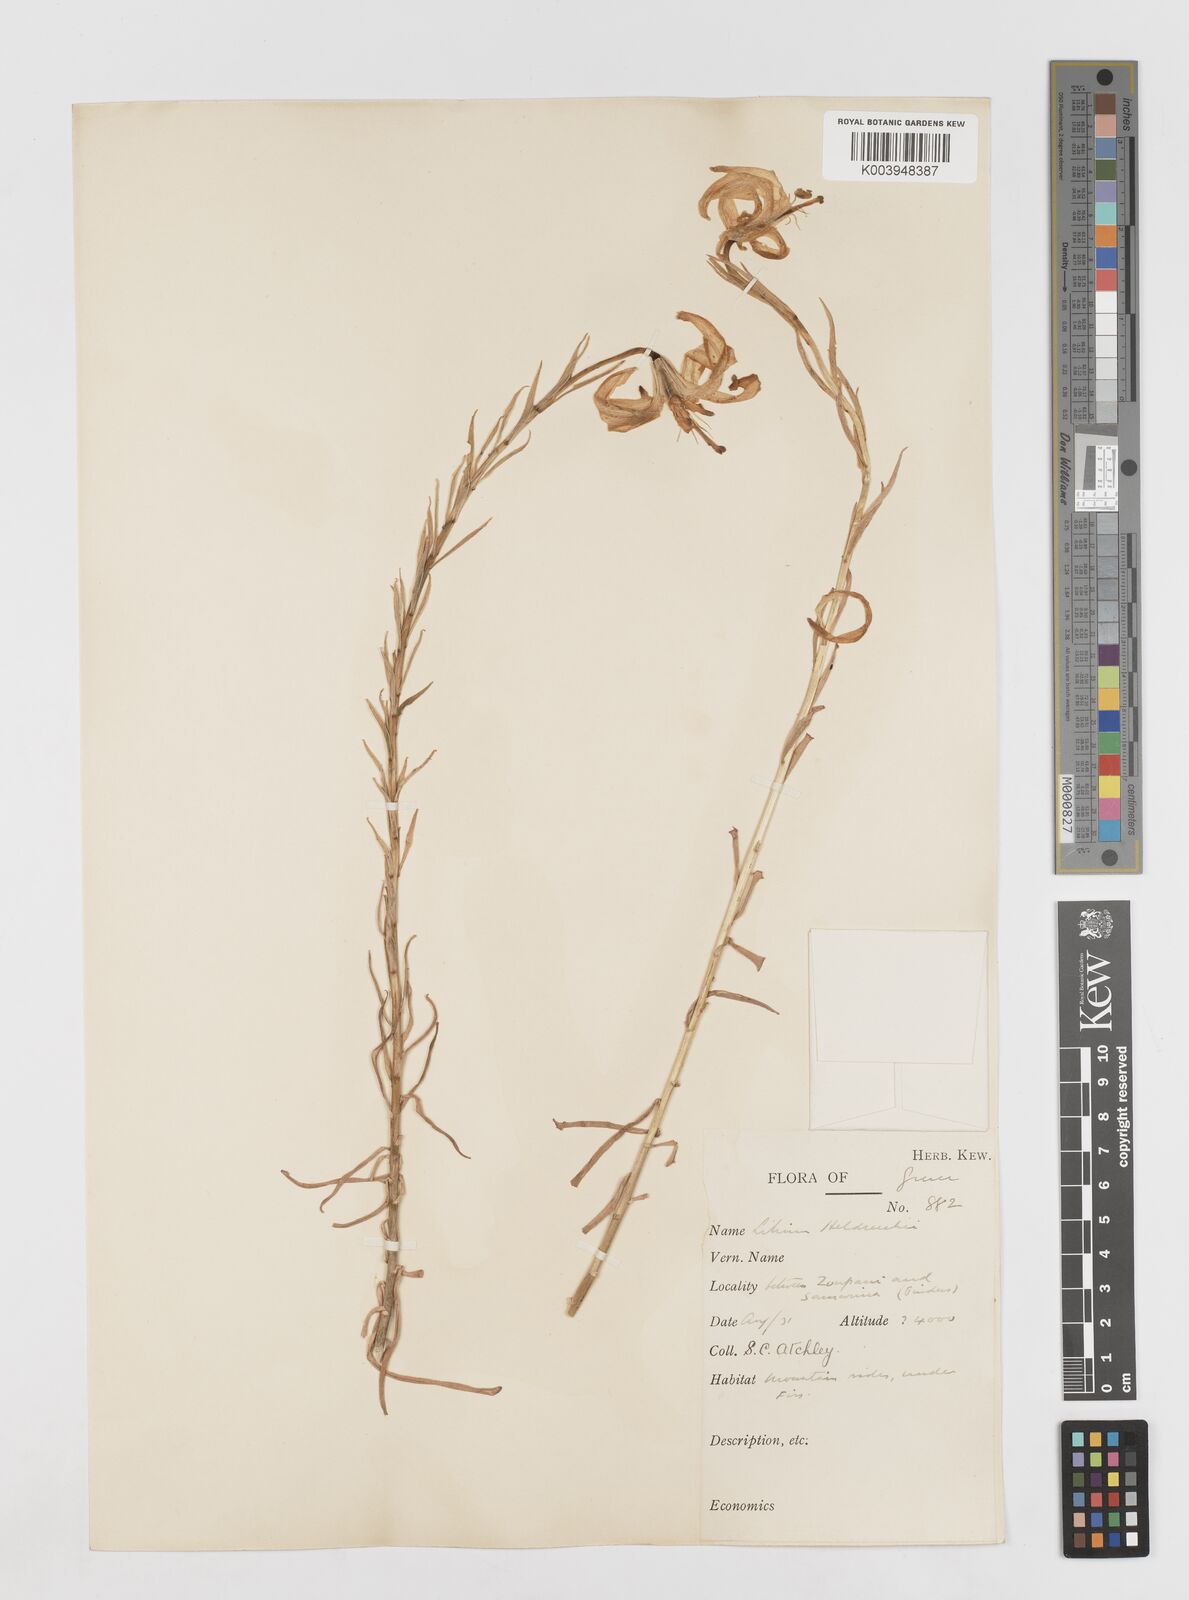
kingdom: Plantae
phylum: Tracheophyta
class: Liliopsida
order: Liliales
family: Liliaceae
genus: Lilium
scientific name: Lilium
